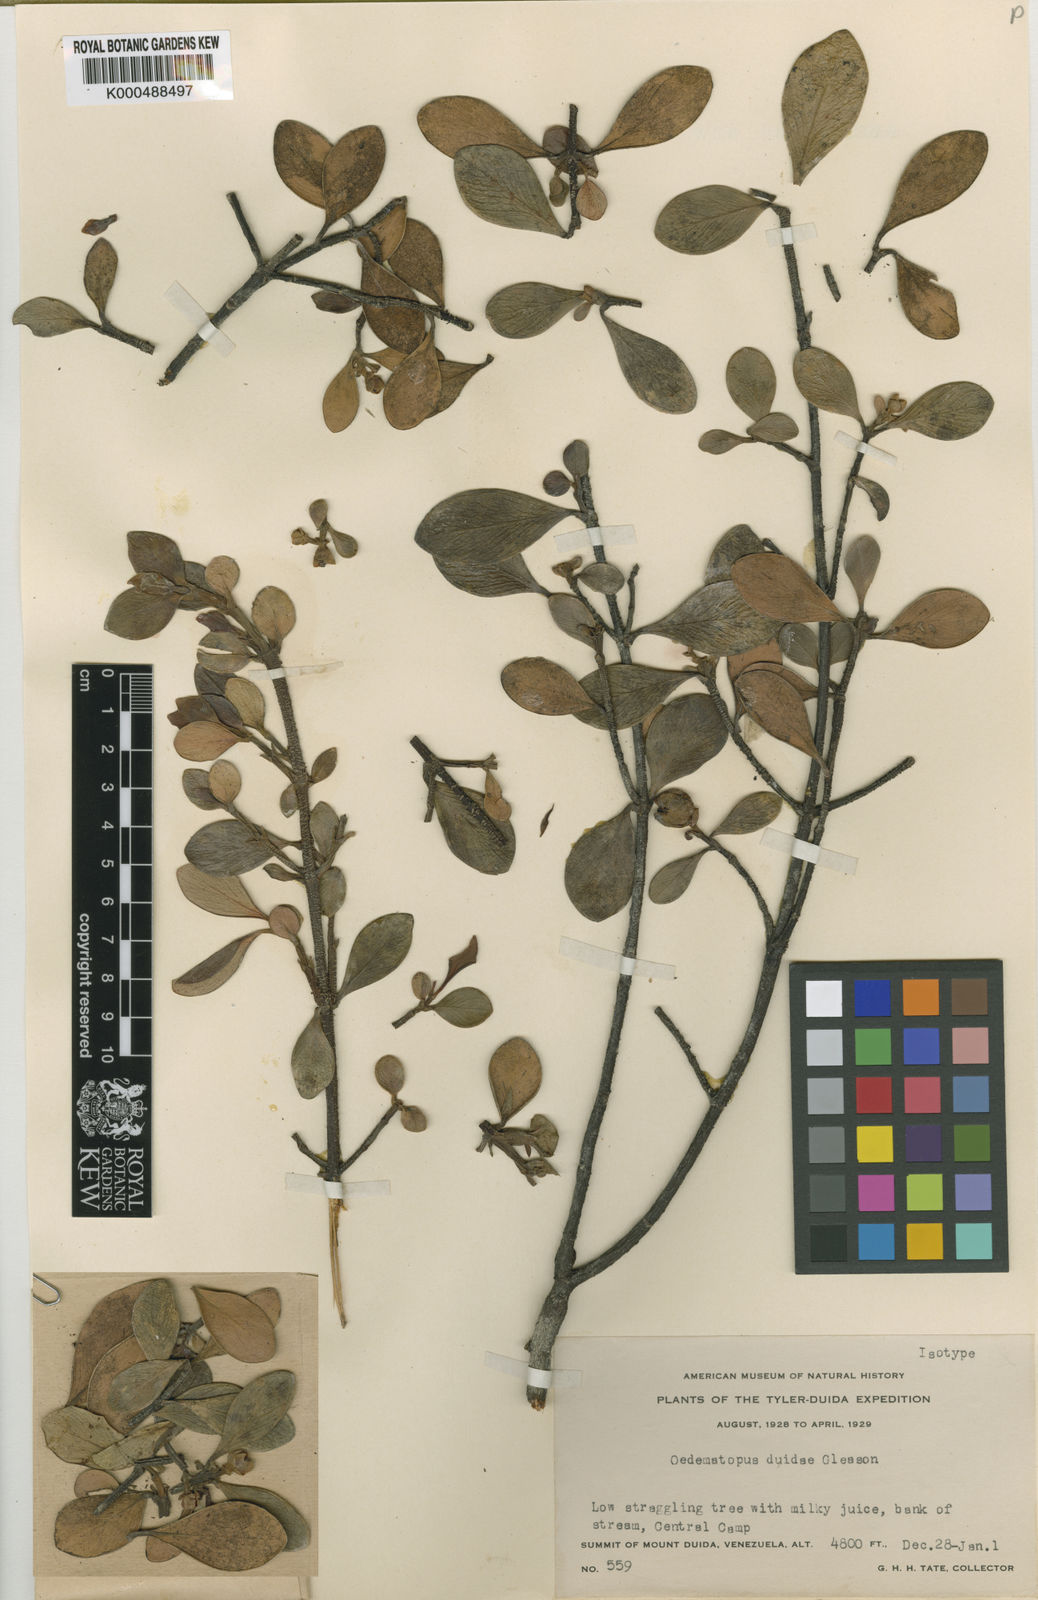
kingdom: Plantae
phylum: Tracheophyta
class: Magnoliopsida
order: Malpighiales
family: Clusiaceae
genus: Clusia
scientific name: Clusia huberi
